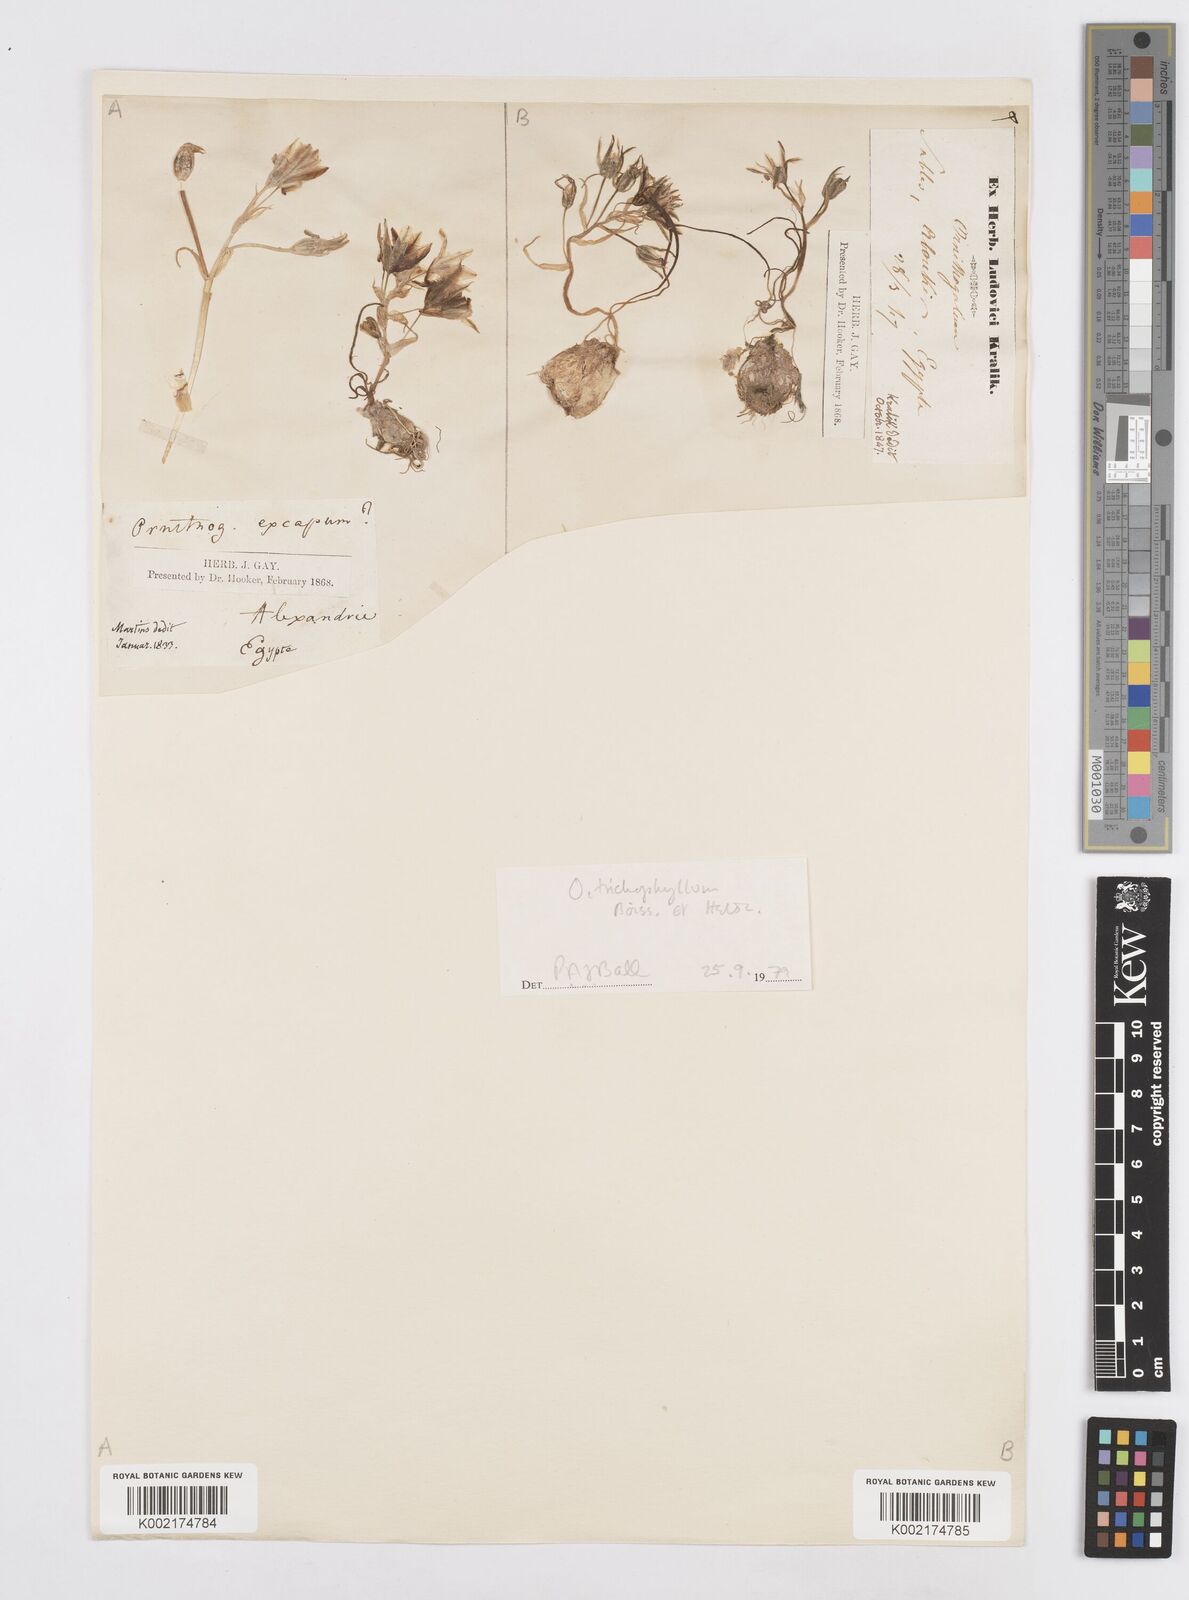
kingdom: Plantae
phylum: Tracheophyta
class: Liliopsida
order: Asparagales
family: Asparagaceae
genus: Ornithogalum
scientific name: Ornithogalum trichophyllum
